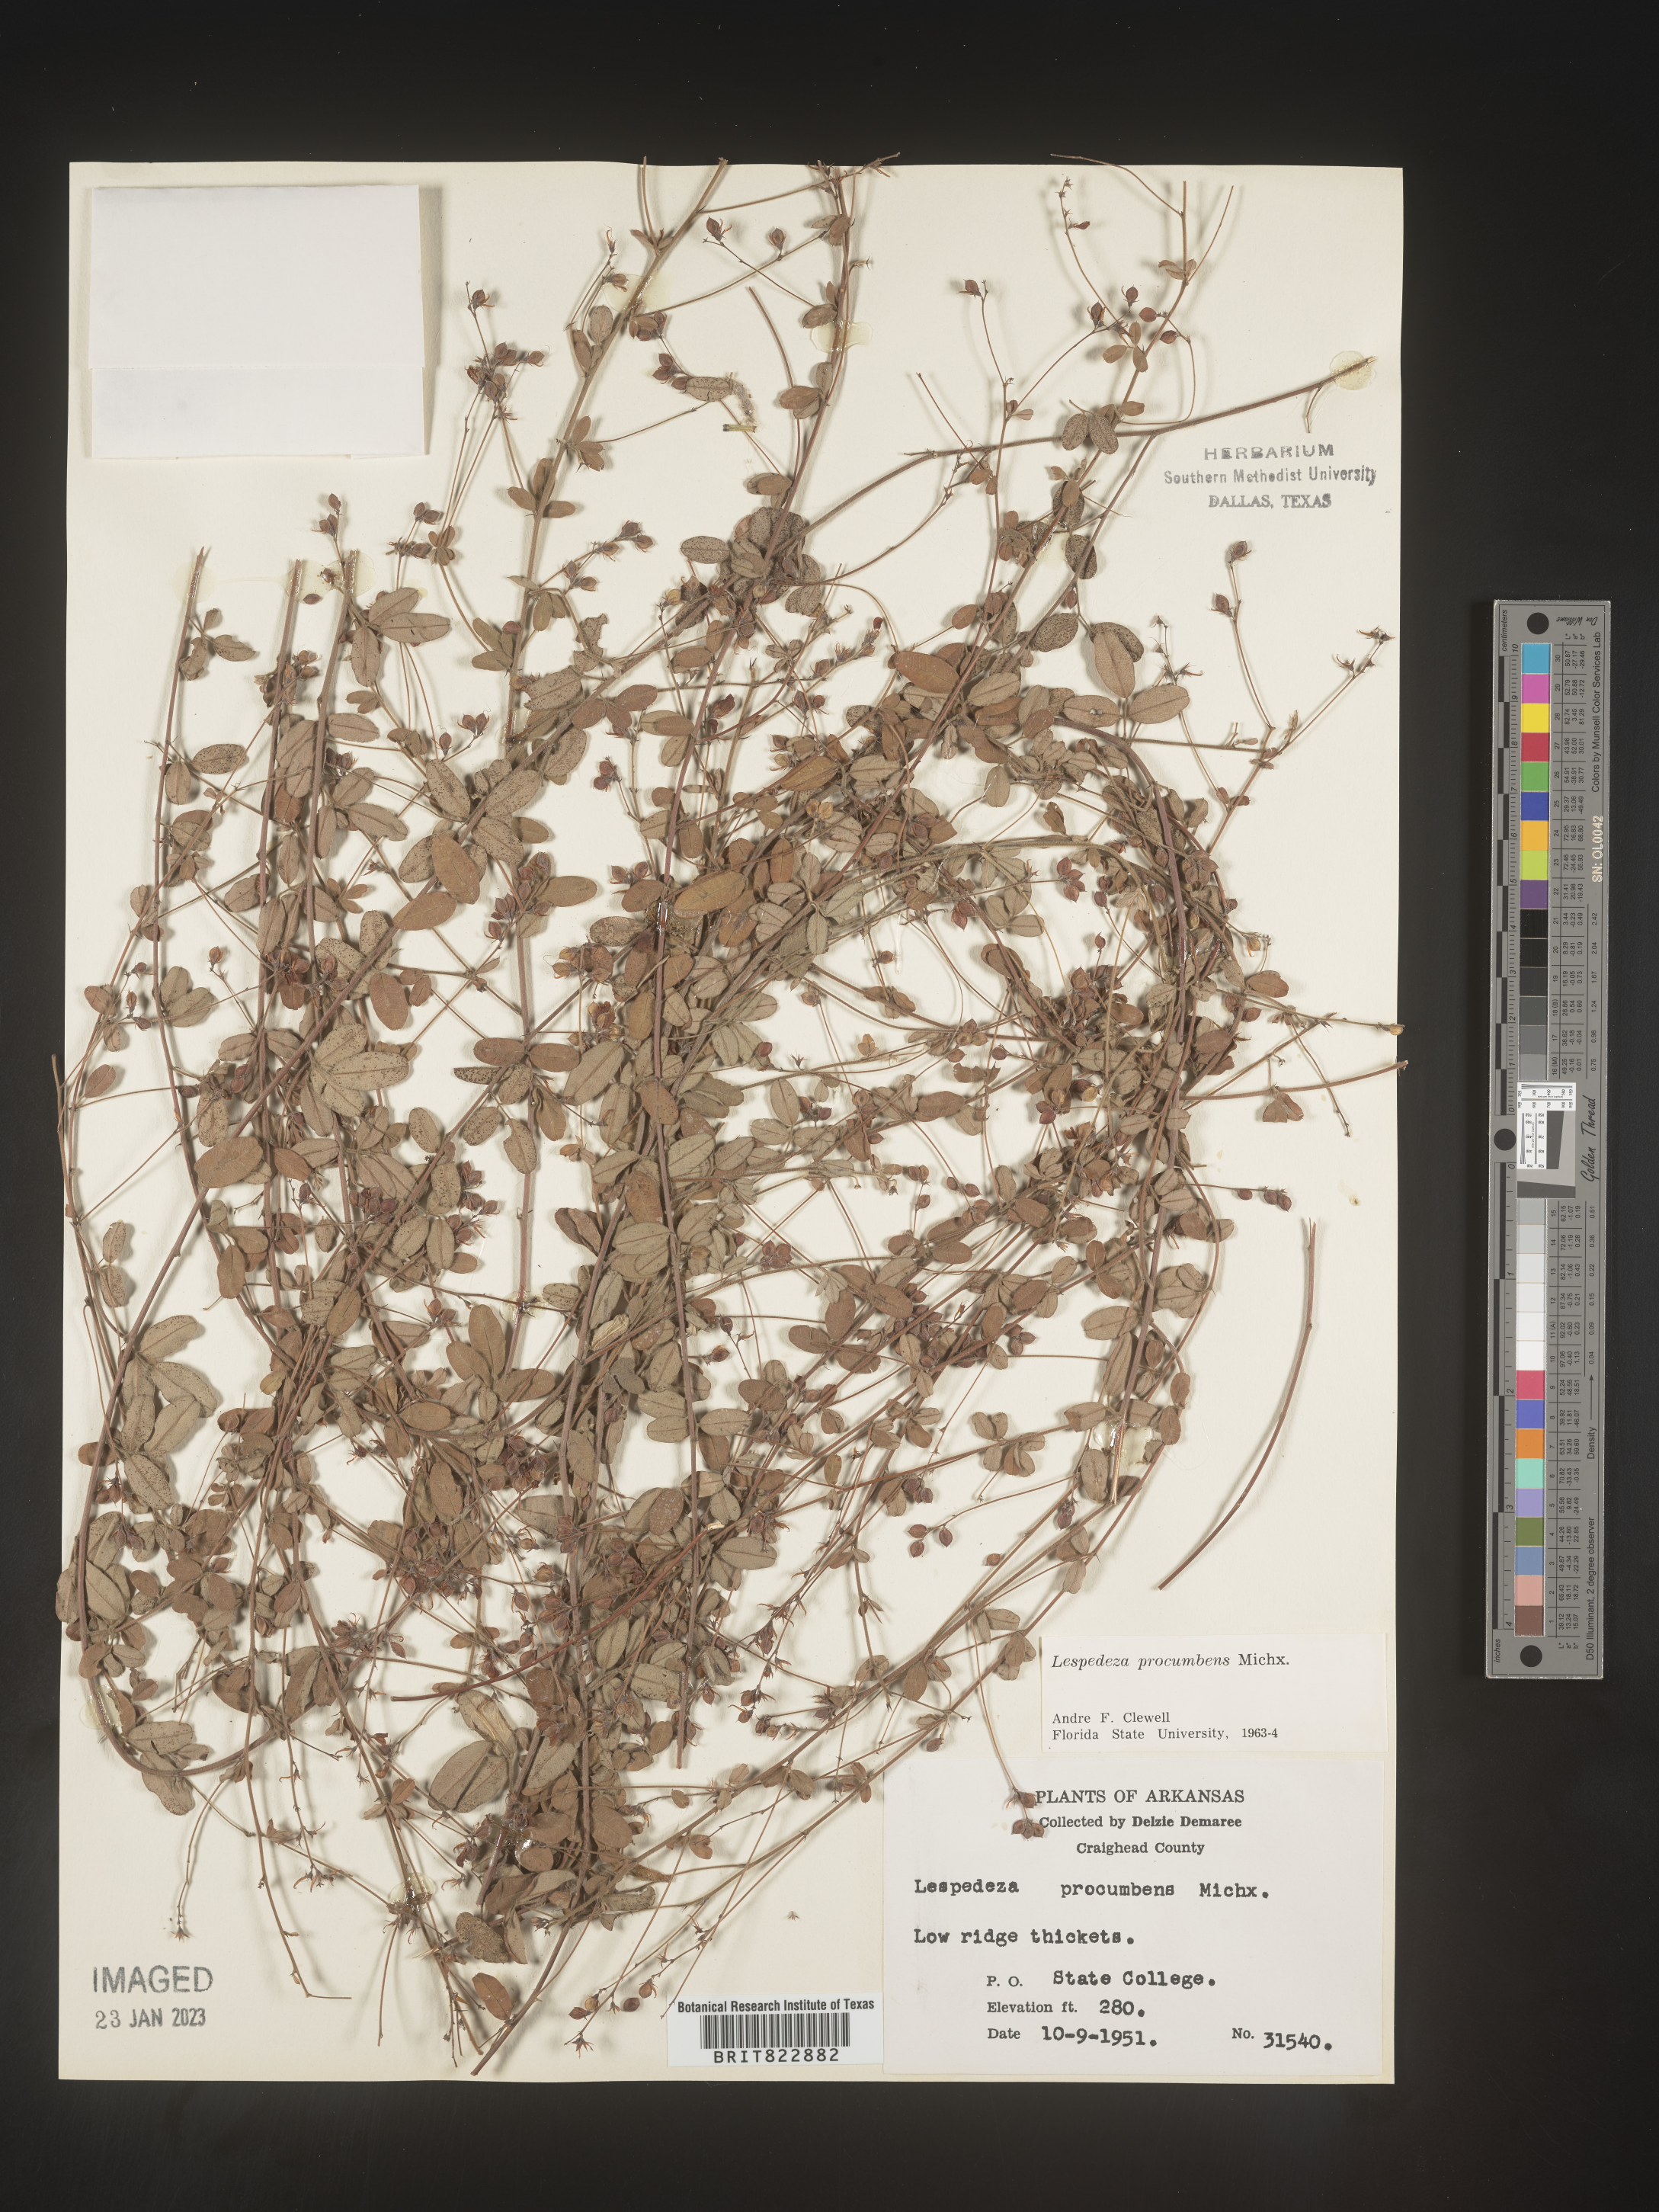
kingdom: Plantae
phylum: Tracheophyta
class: Magnoliopsida
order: Fabales
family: Fabaceae
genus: Lespedeza
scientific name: Lespedeza procumbens
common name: Downy trailing bush-clover
